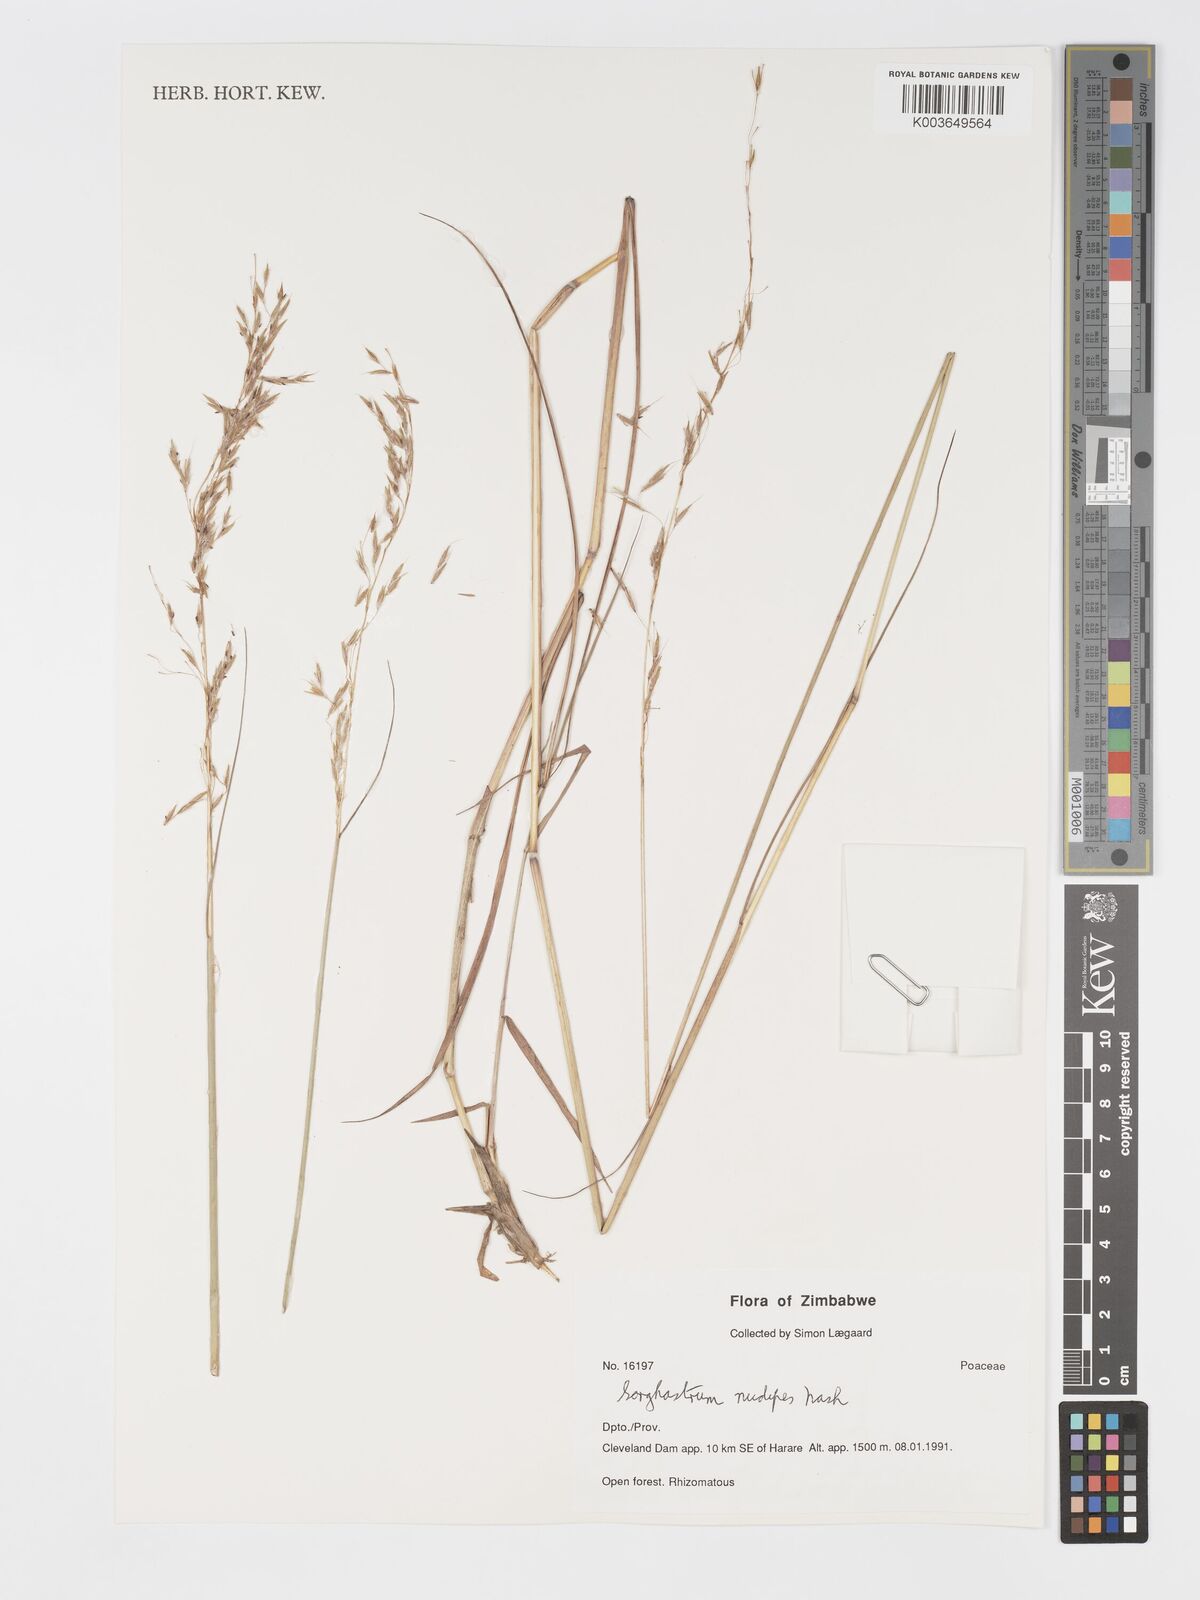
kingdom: Plantae
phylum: Tracheophyta
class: Liliopsida
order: Poales
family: Poaceae
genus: Sorghastrum
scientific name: Sorghastrum nudipes
